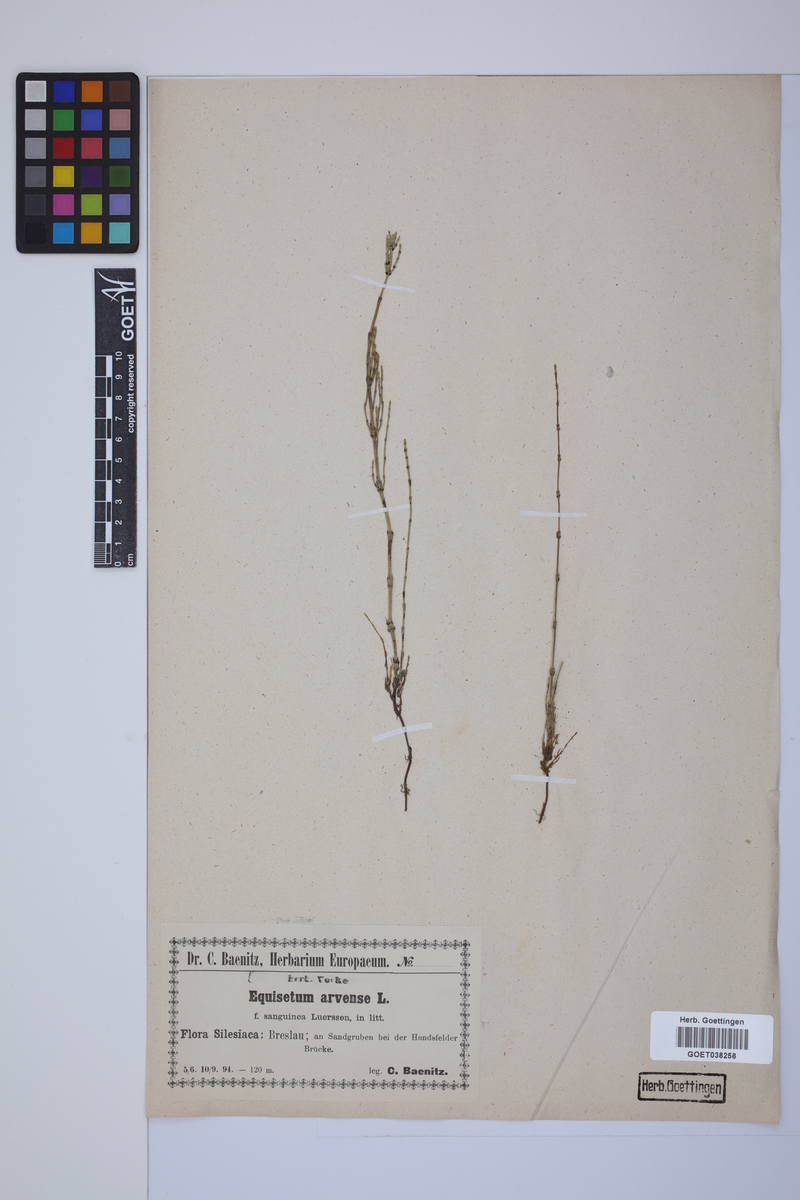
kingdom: Plantae
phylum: Tracheophyta
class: Polypodiopsida
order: Equisetales
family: Equisetaceae
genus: Equisetum
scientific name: Equisetum arvense
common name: Field horsetail
